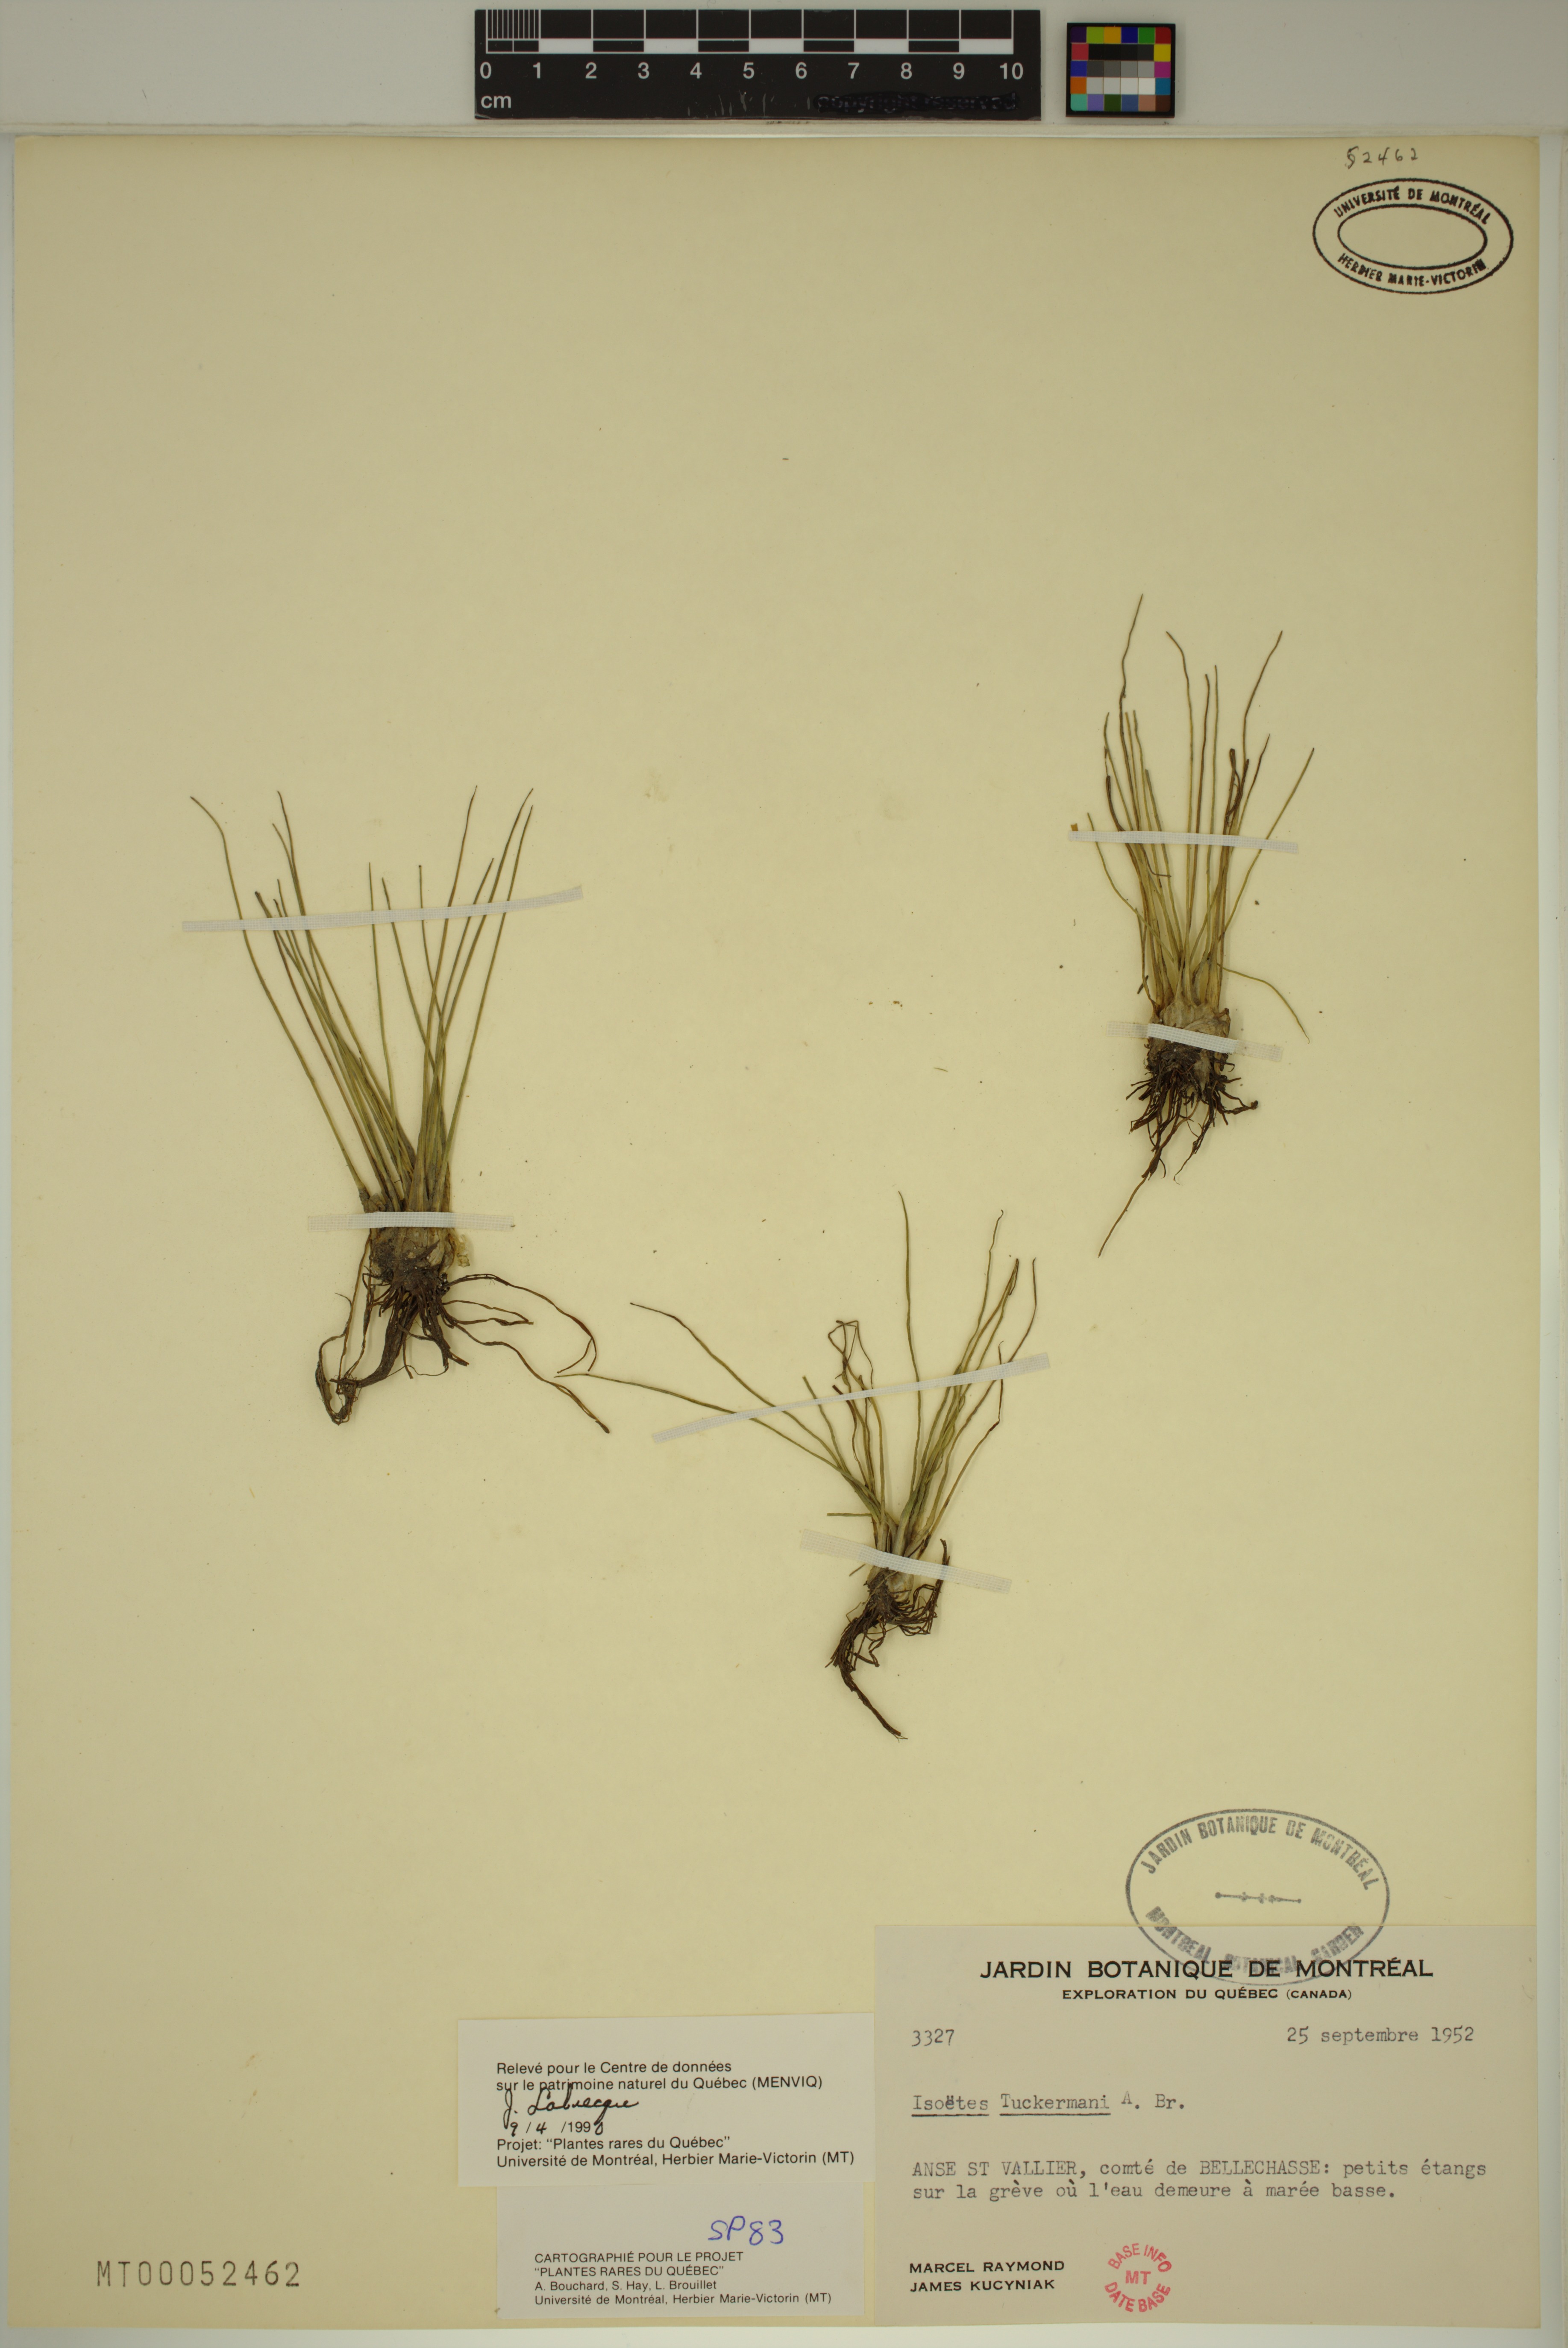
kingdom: Plantae
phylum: Tracheophyta
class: Lycopodiopsida
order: Isoetales
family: Isoetaceae
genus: Isoetes
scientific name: Isoetes laurentiana
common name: St. lawrence quillwort
